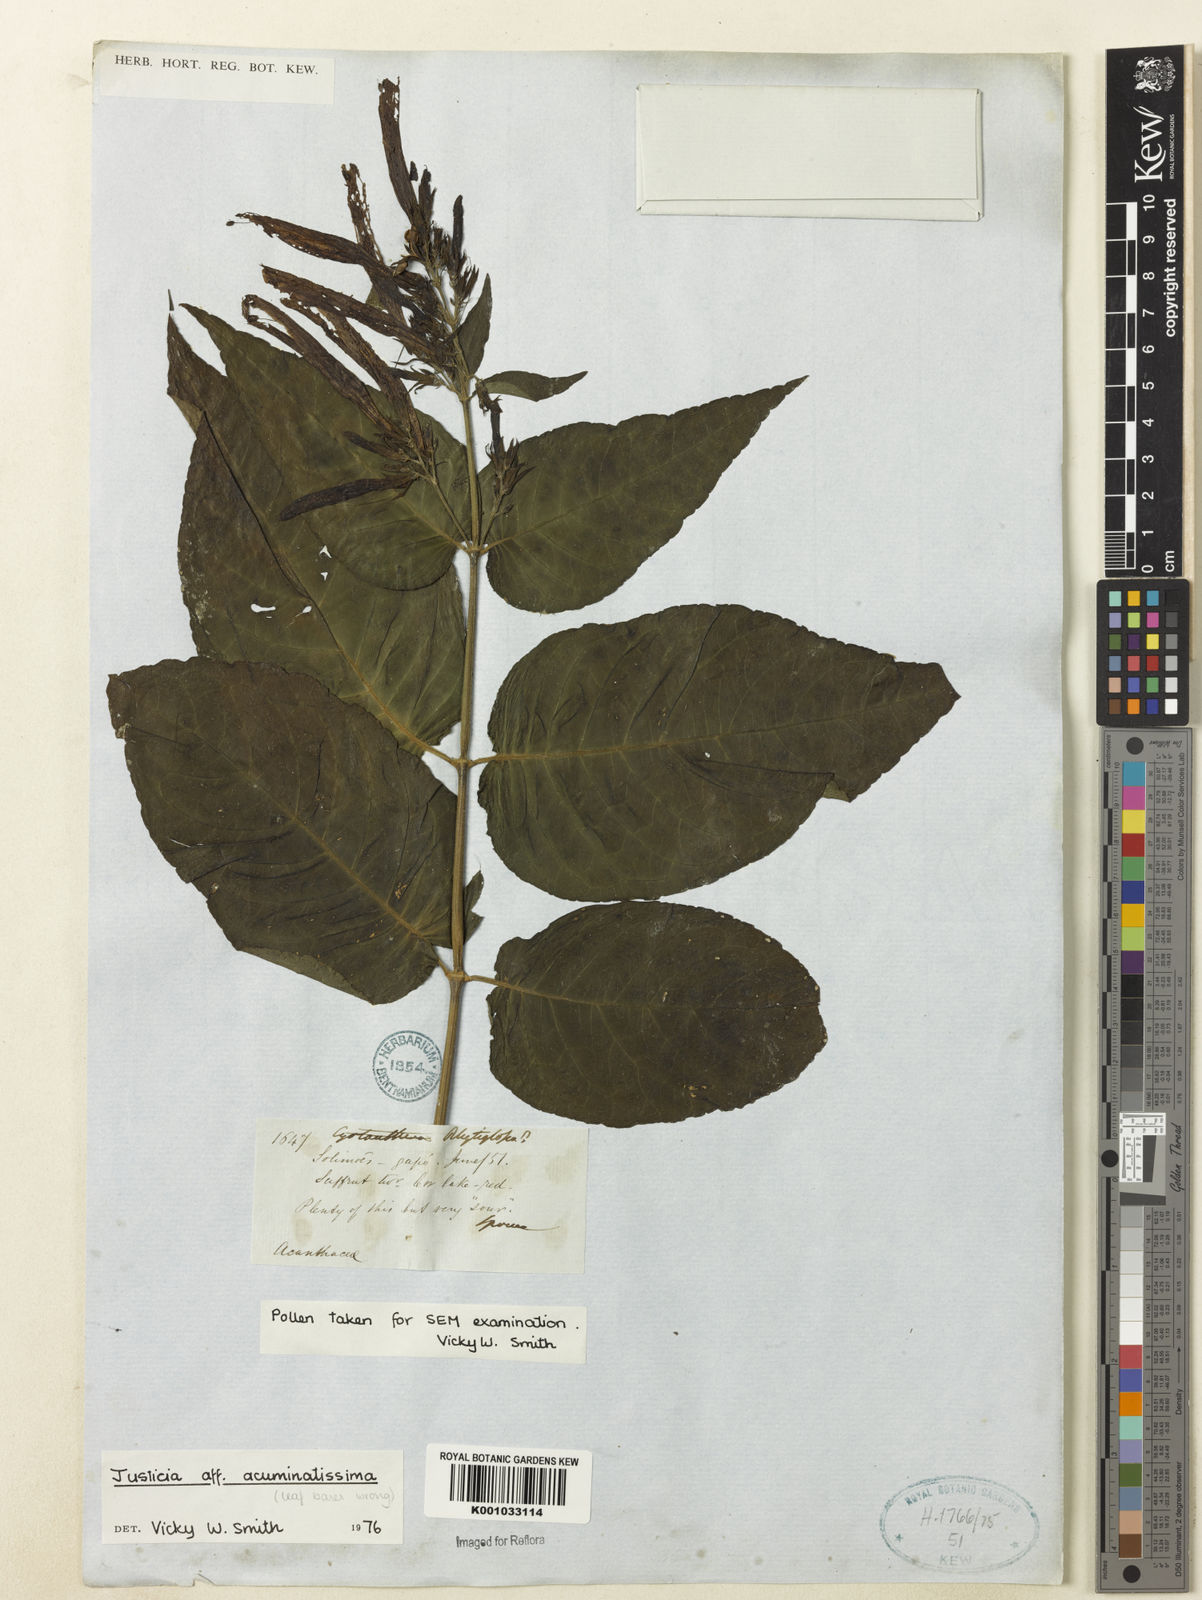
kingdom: Plantae
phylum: Tracheophyta
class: Magnoliopsida
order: Lamiales
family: Acanthaceae
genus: Dianthera
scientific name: Dianthera calycina
